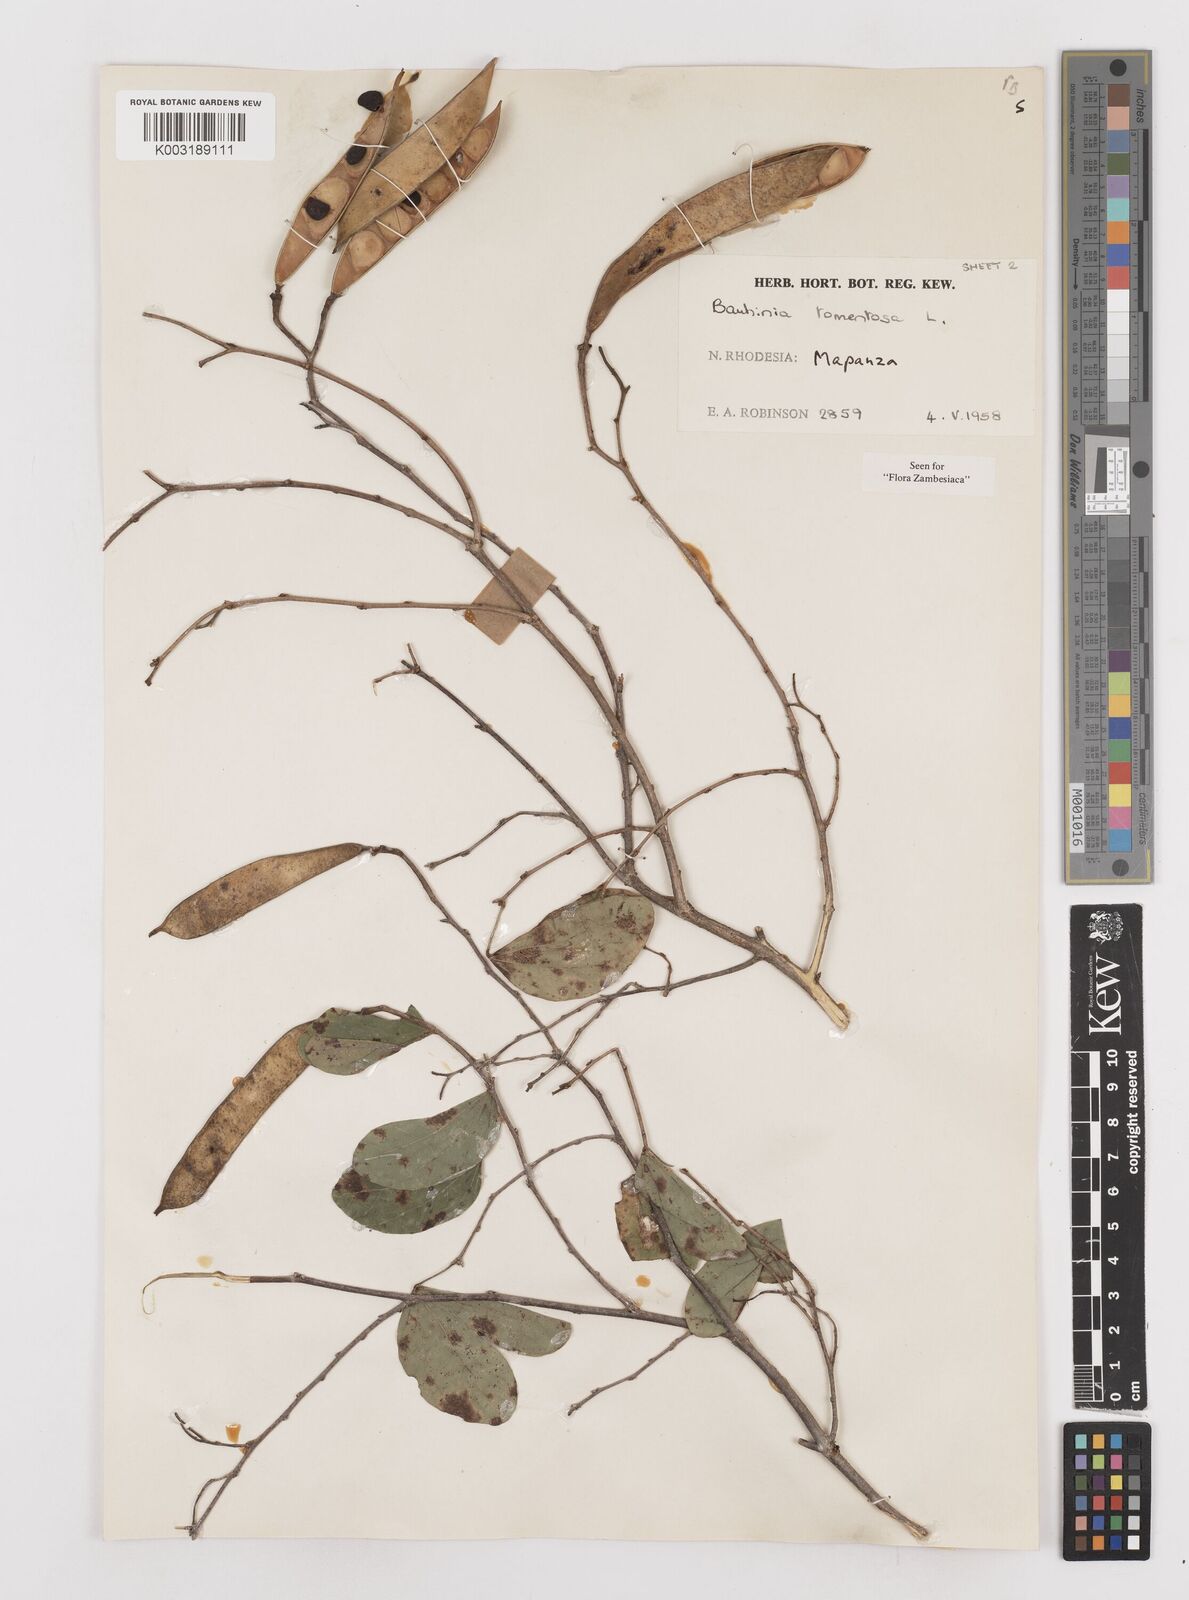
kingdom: Plantae
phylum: Tracheophyta
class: Magnoliopsida
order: Fabales
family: Fabaceae
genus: Bauhinia
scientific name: Bauhinia tomentosa
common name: Bell bauhinia
